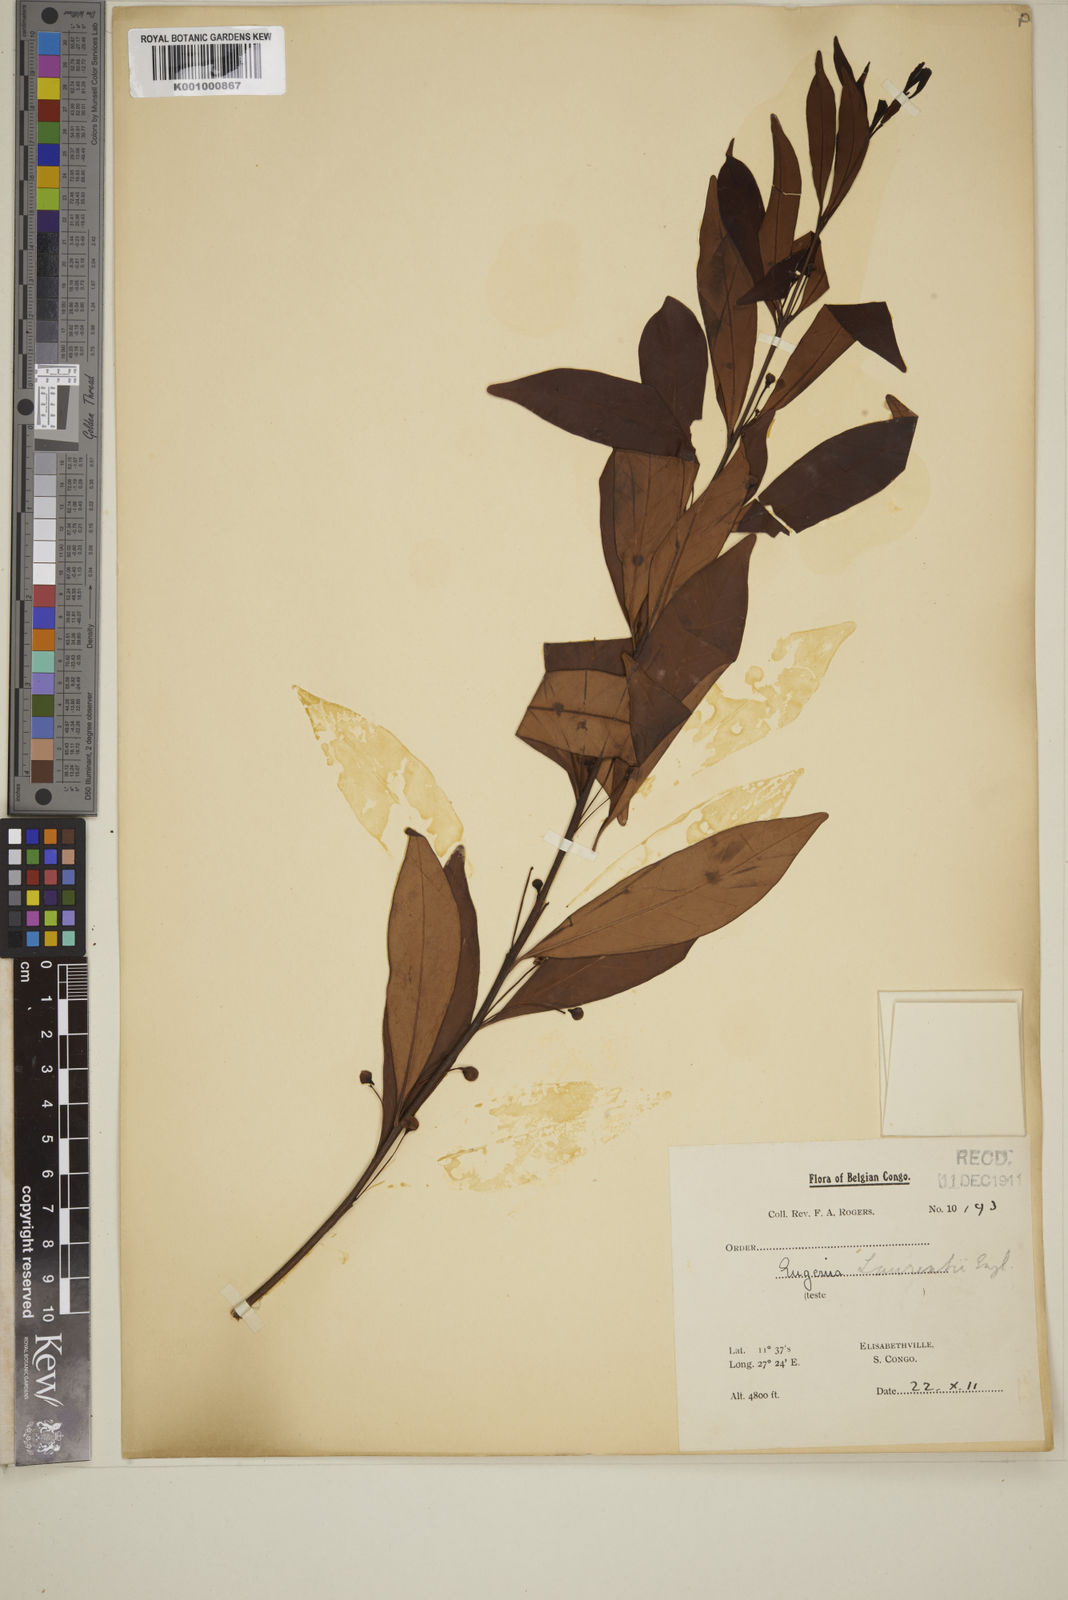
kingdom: Plantae
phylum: Tracheophyta
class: Magnoliopsida
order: Myrtales
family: Myrtaceae
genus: Eugenia
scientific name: Eugenia malangensis
